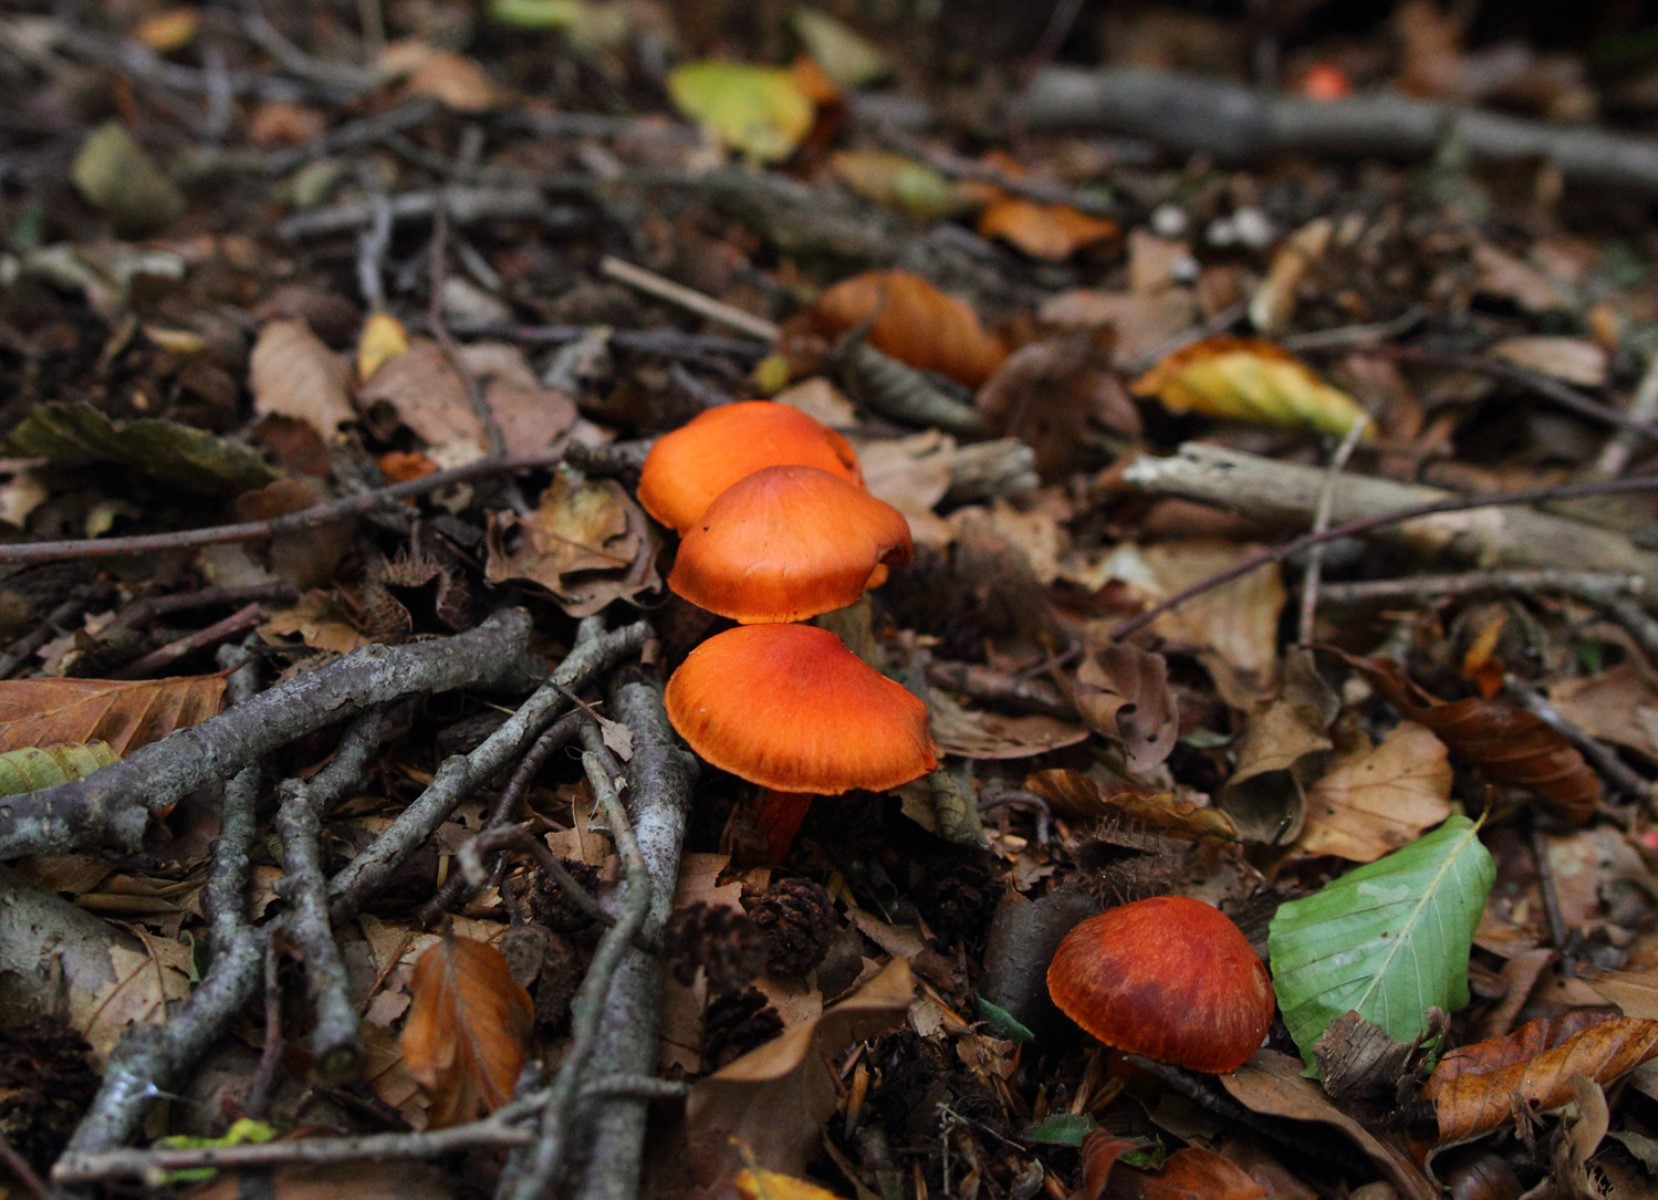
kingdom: Fungi
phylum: Basidiomycota
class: Agaricomycetes
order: Agaricales
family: Cortinariaceae
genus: Cortinarius
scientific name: Cortinarius cinnabarinus
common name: cinnober-slørhat
